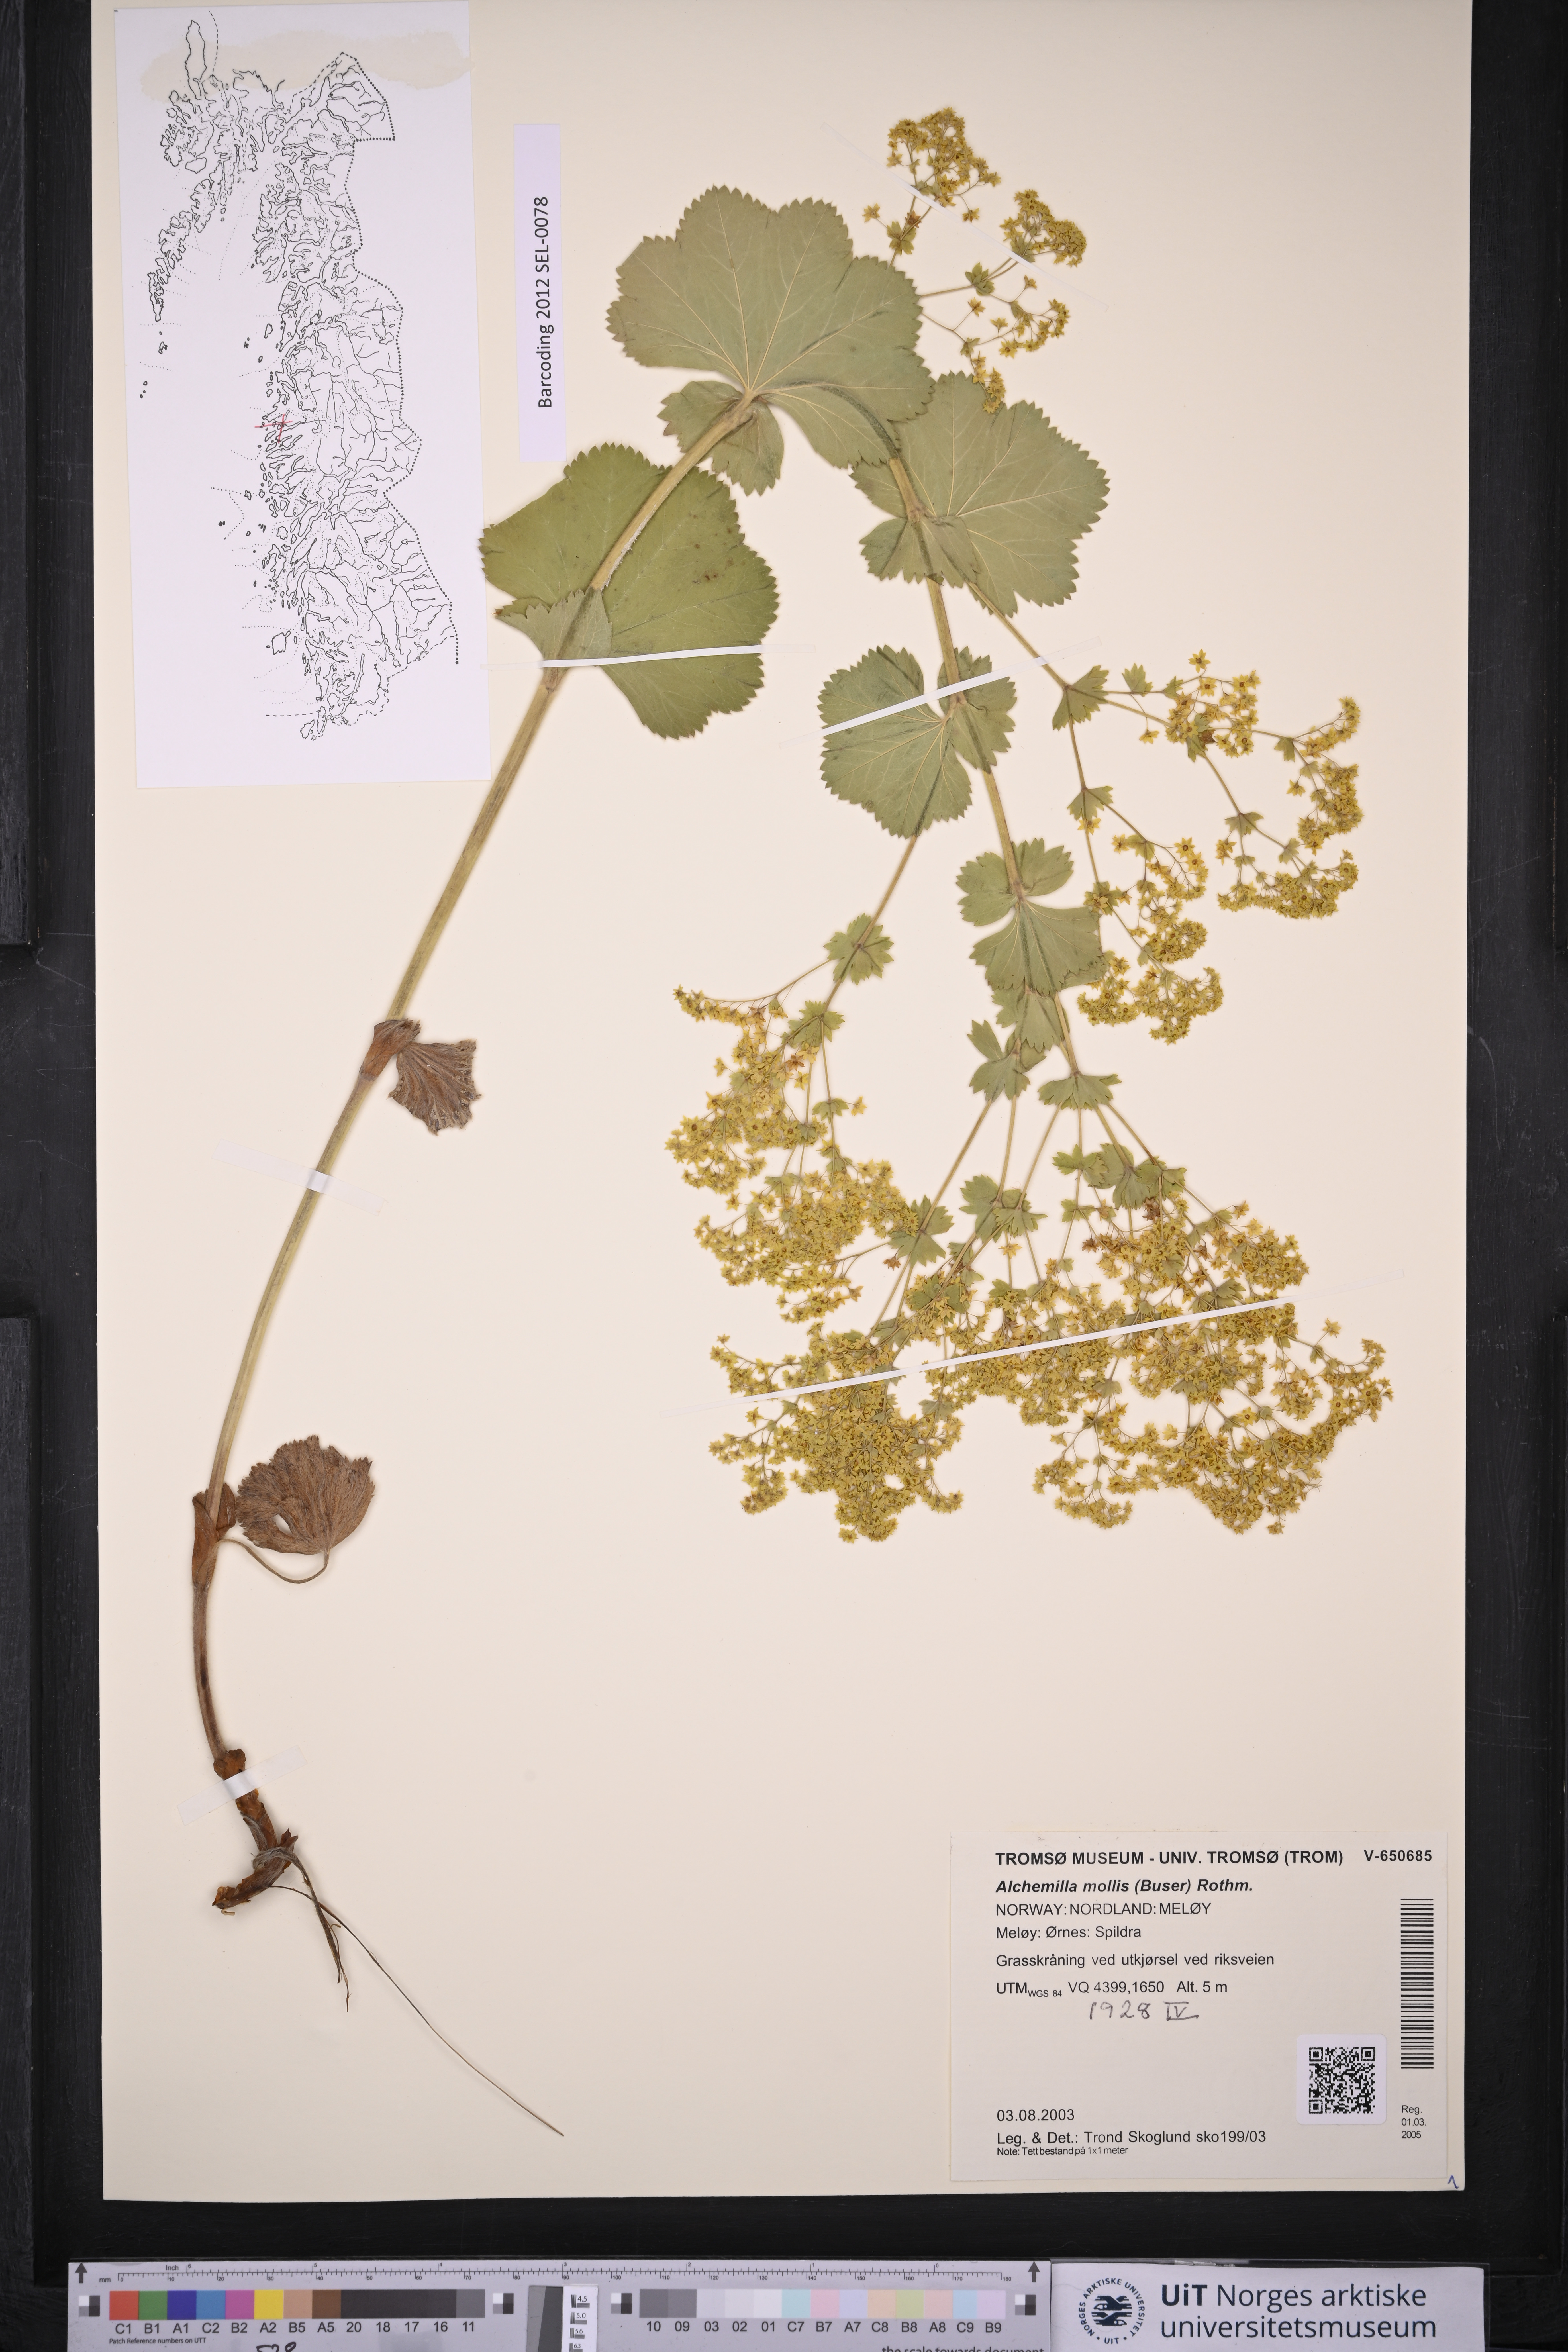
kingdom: Plantae
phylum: Tracheophyta
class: Magnoliopsida
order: Rosales
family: Rosaceae
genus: Alchemilla
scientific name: Alchemilla mollis
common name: Lady's-mantle
